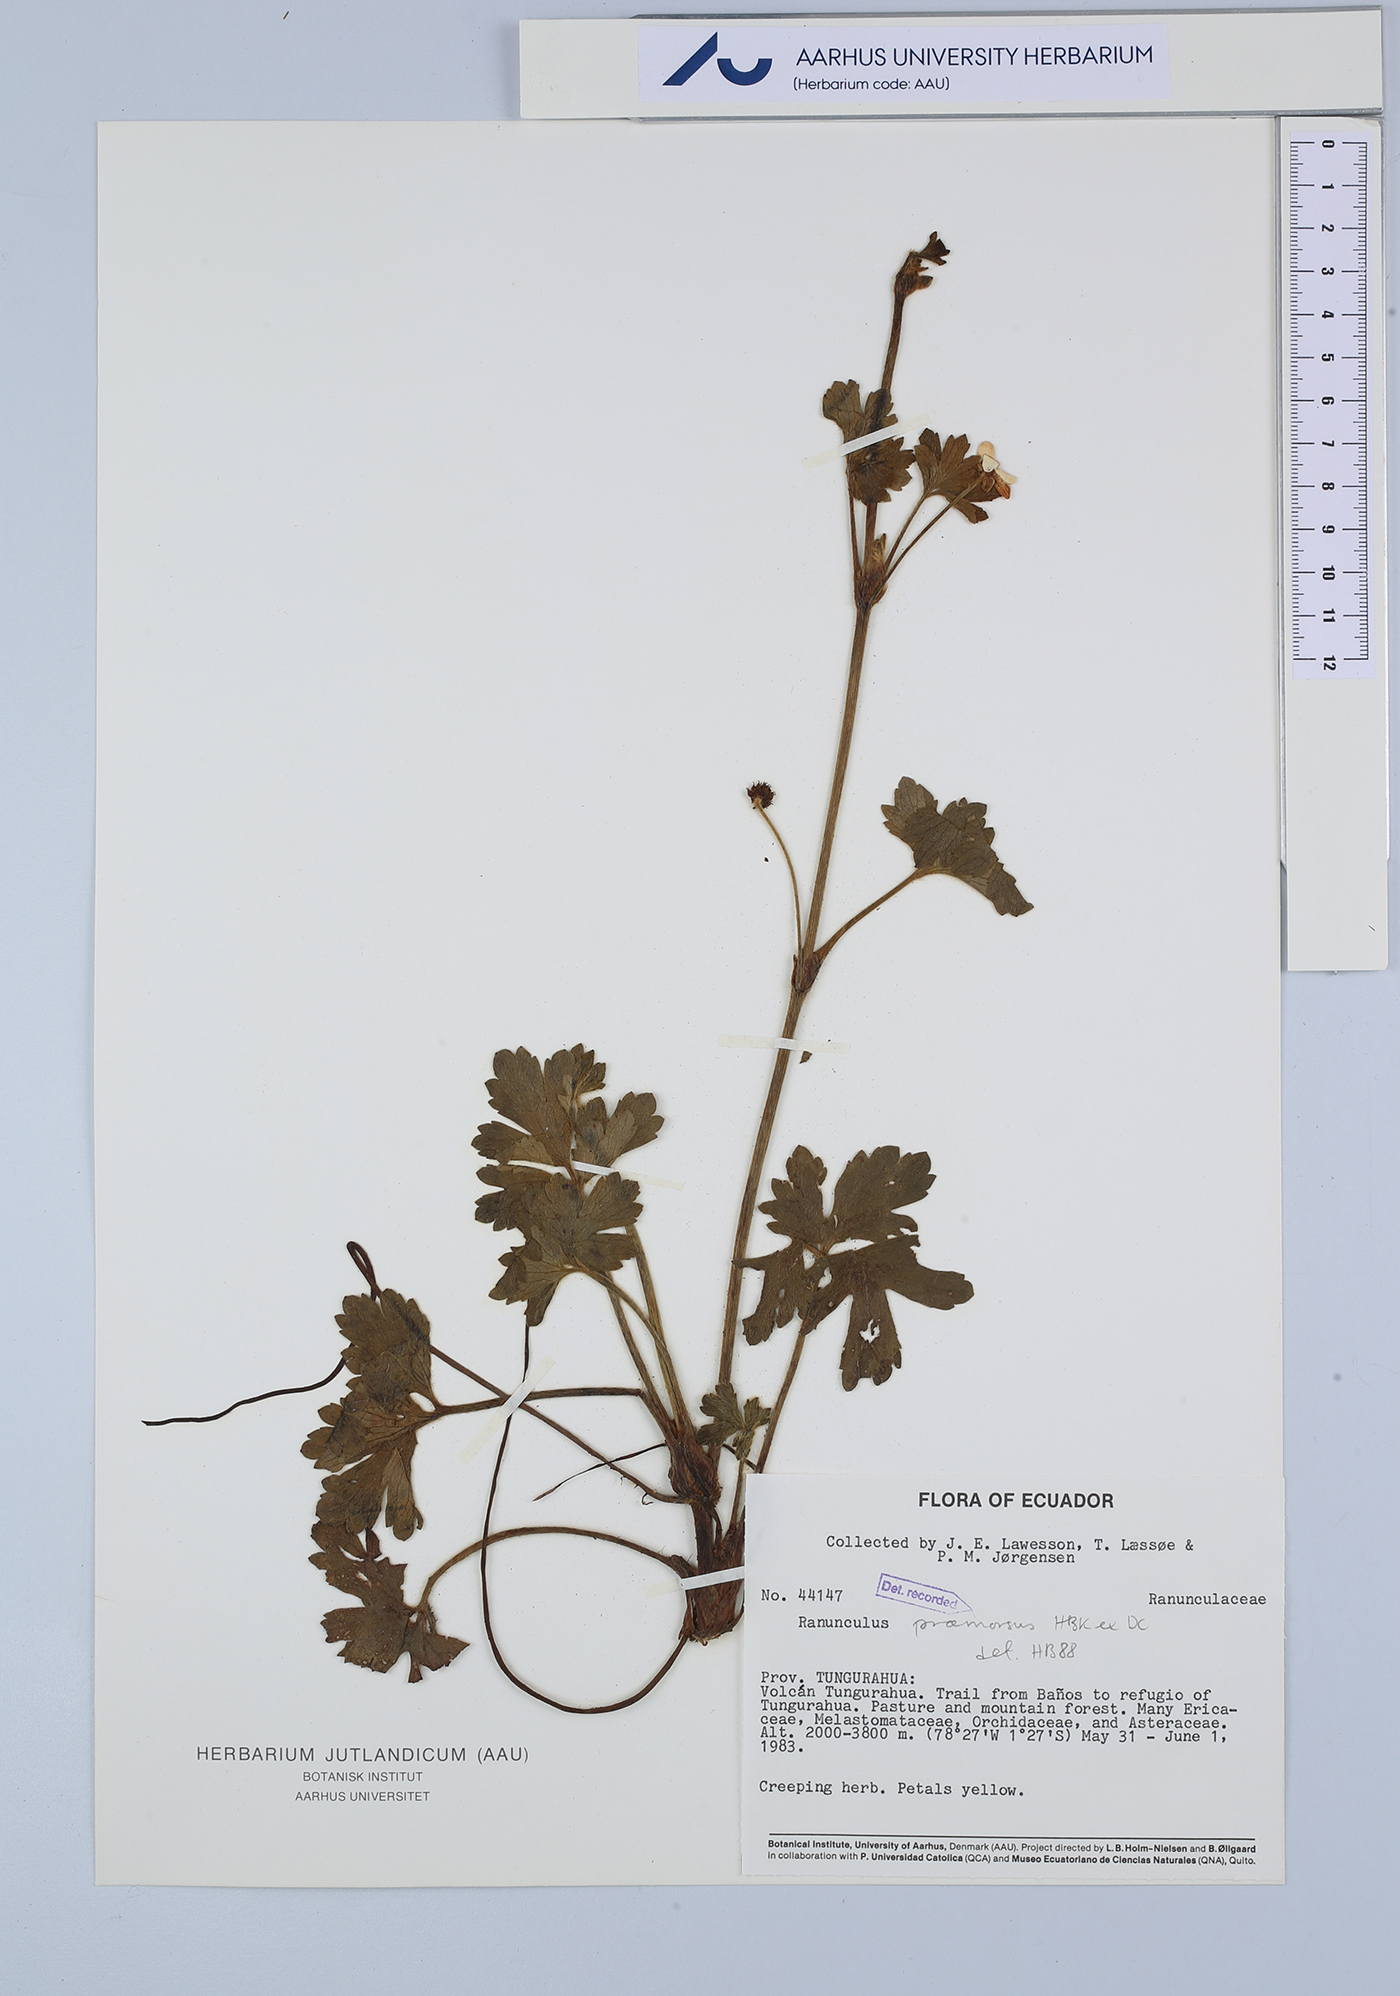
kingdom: Plantae
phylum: Tracheophyta
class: Magnoliopsida
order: Ranunculales
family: Ranunculaceae
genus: Ranunculus
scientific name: Ranunculus praemorsus
